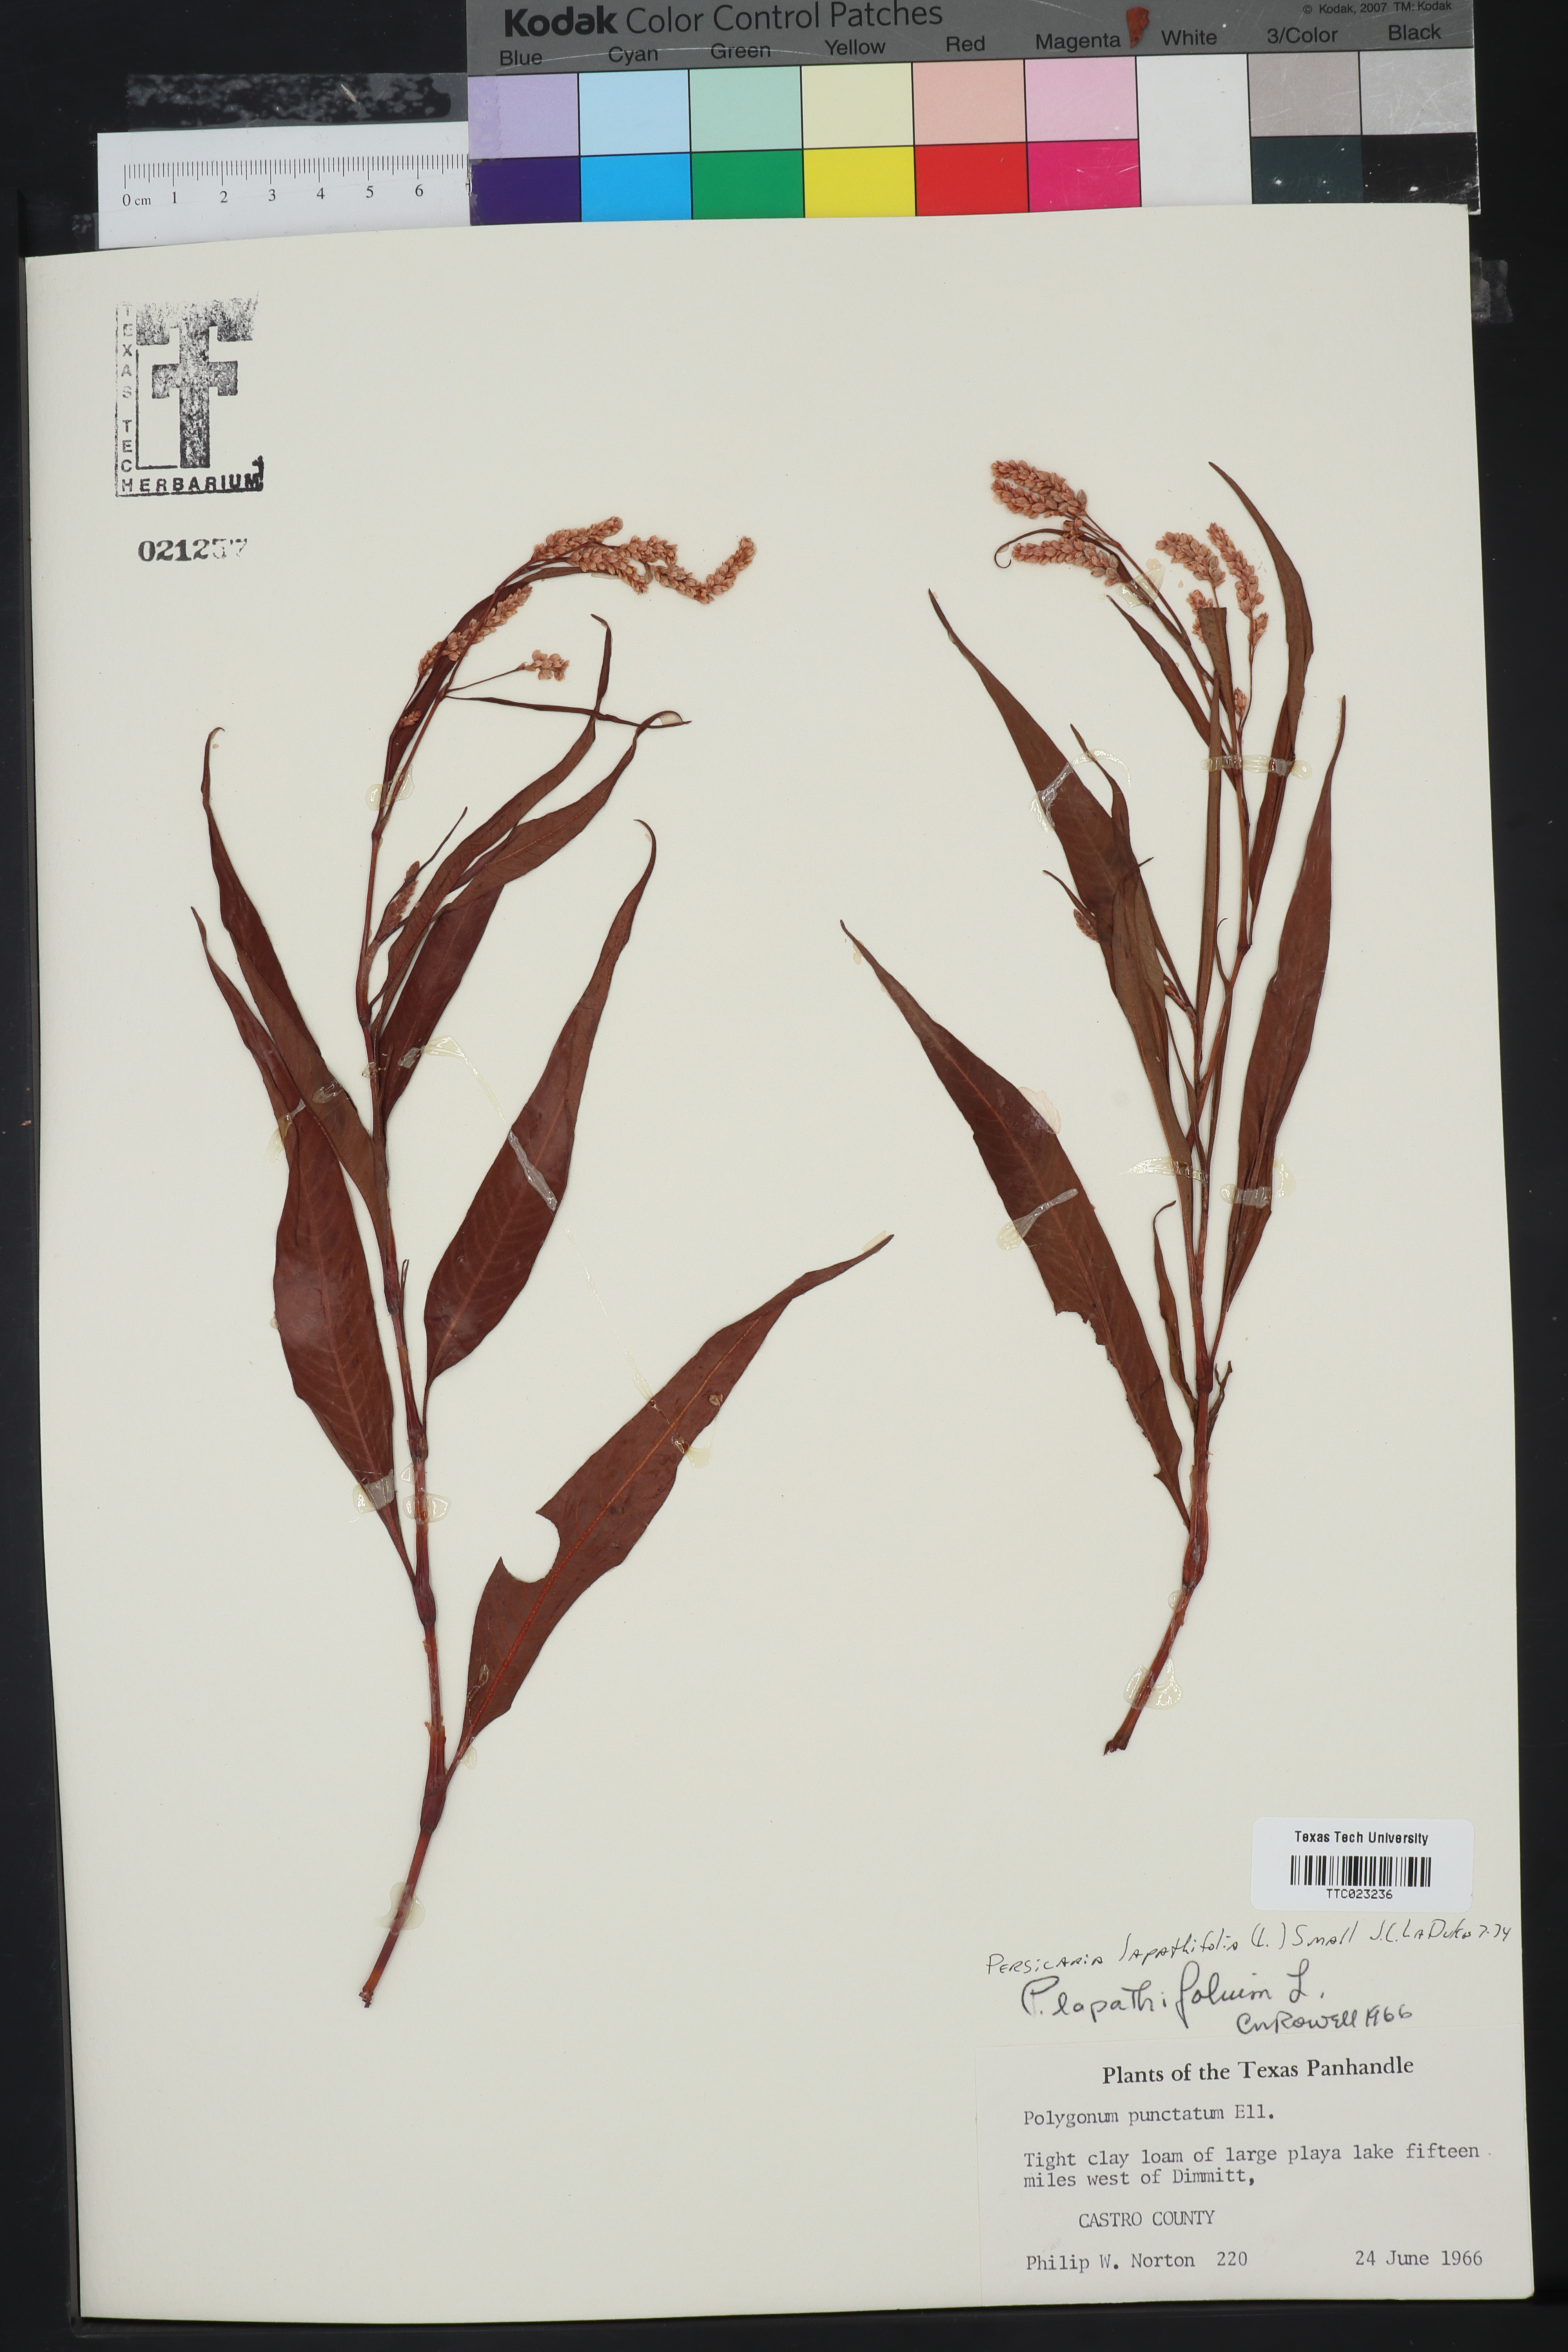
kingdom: Plantae
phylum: Tracheophyta
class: Magnoliopsida
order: Caryophyllales
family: Polygonaceae
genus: Persicaria
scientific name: Persicaria punctata
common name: Dotted smartweed
